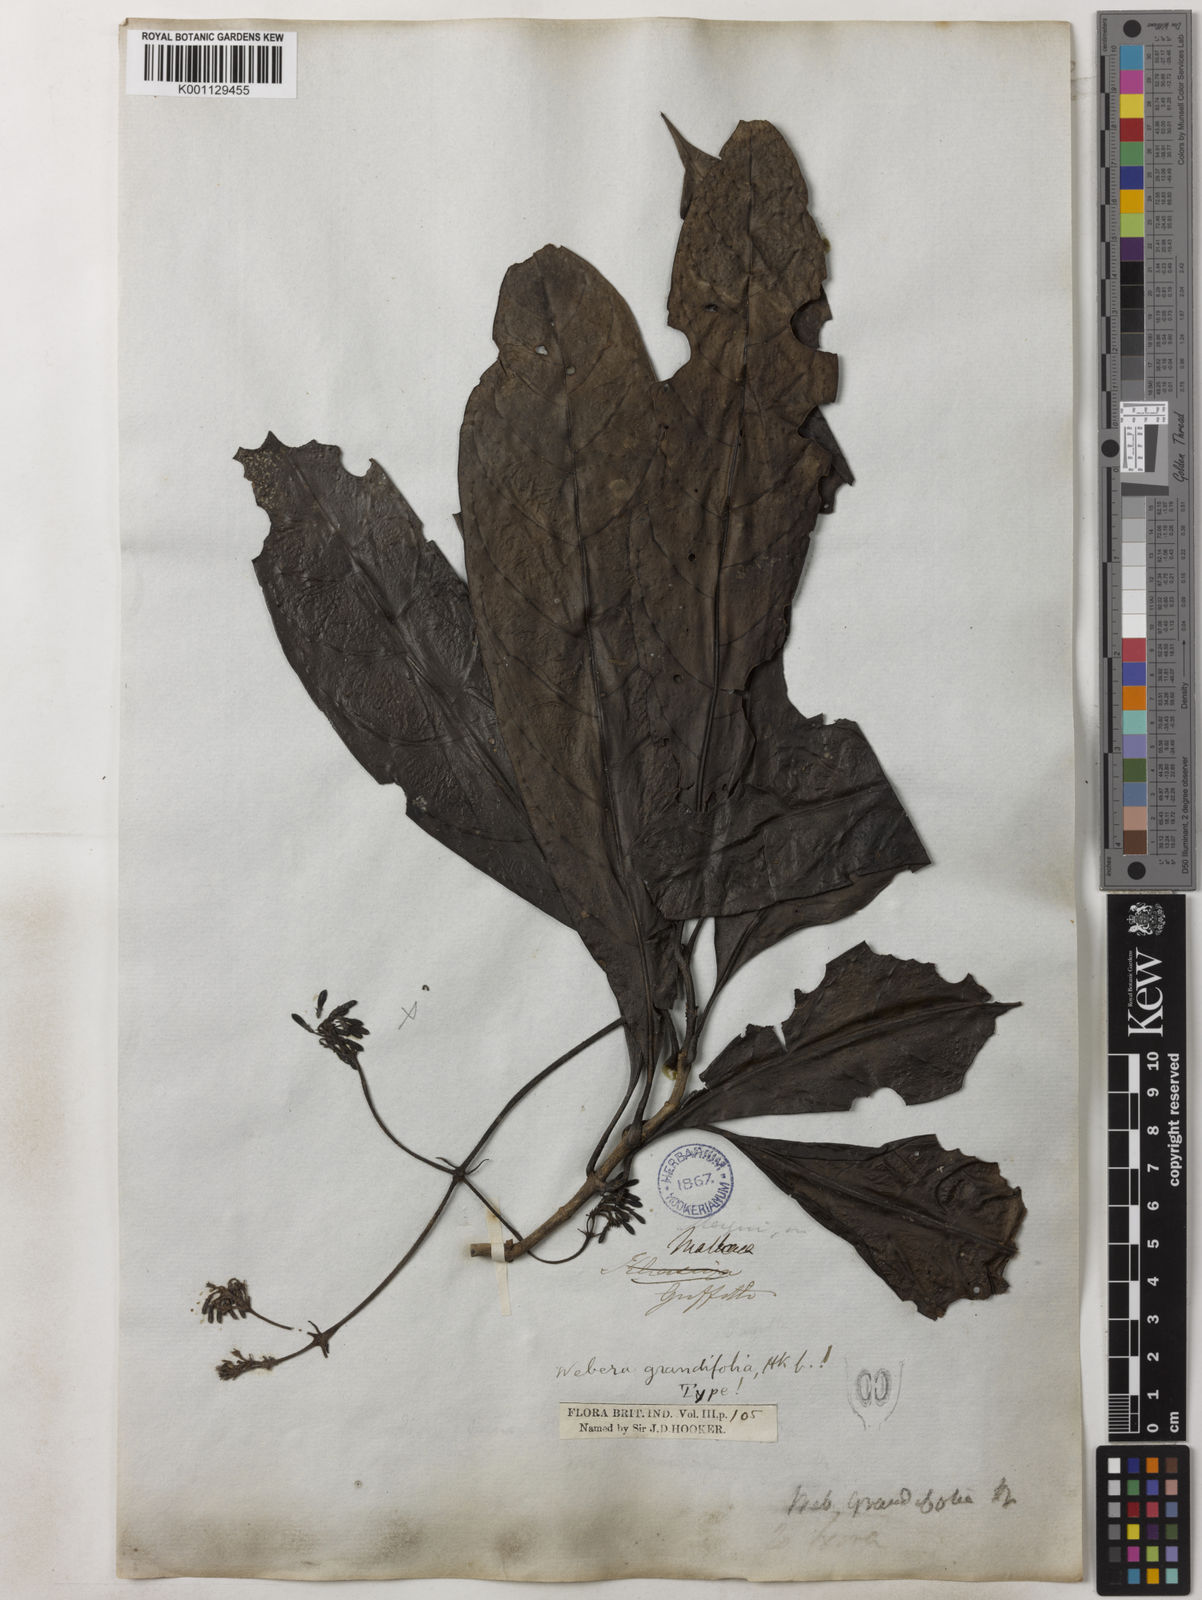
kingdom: Plantae
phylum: Tracheophyta
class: Magnoliopsida
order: Gentianales
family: Rubiaceae
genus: Tarenna
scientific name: Tarenna longifolia
